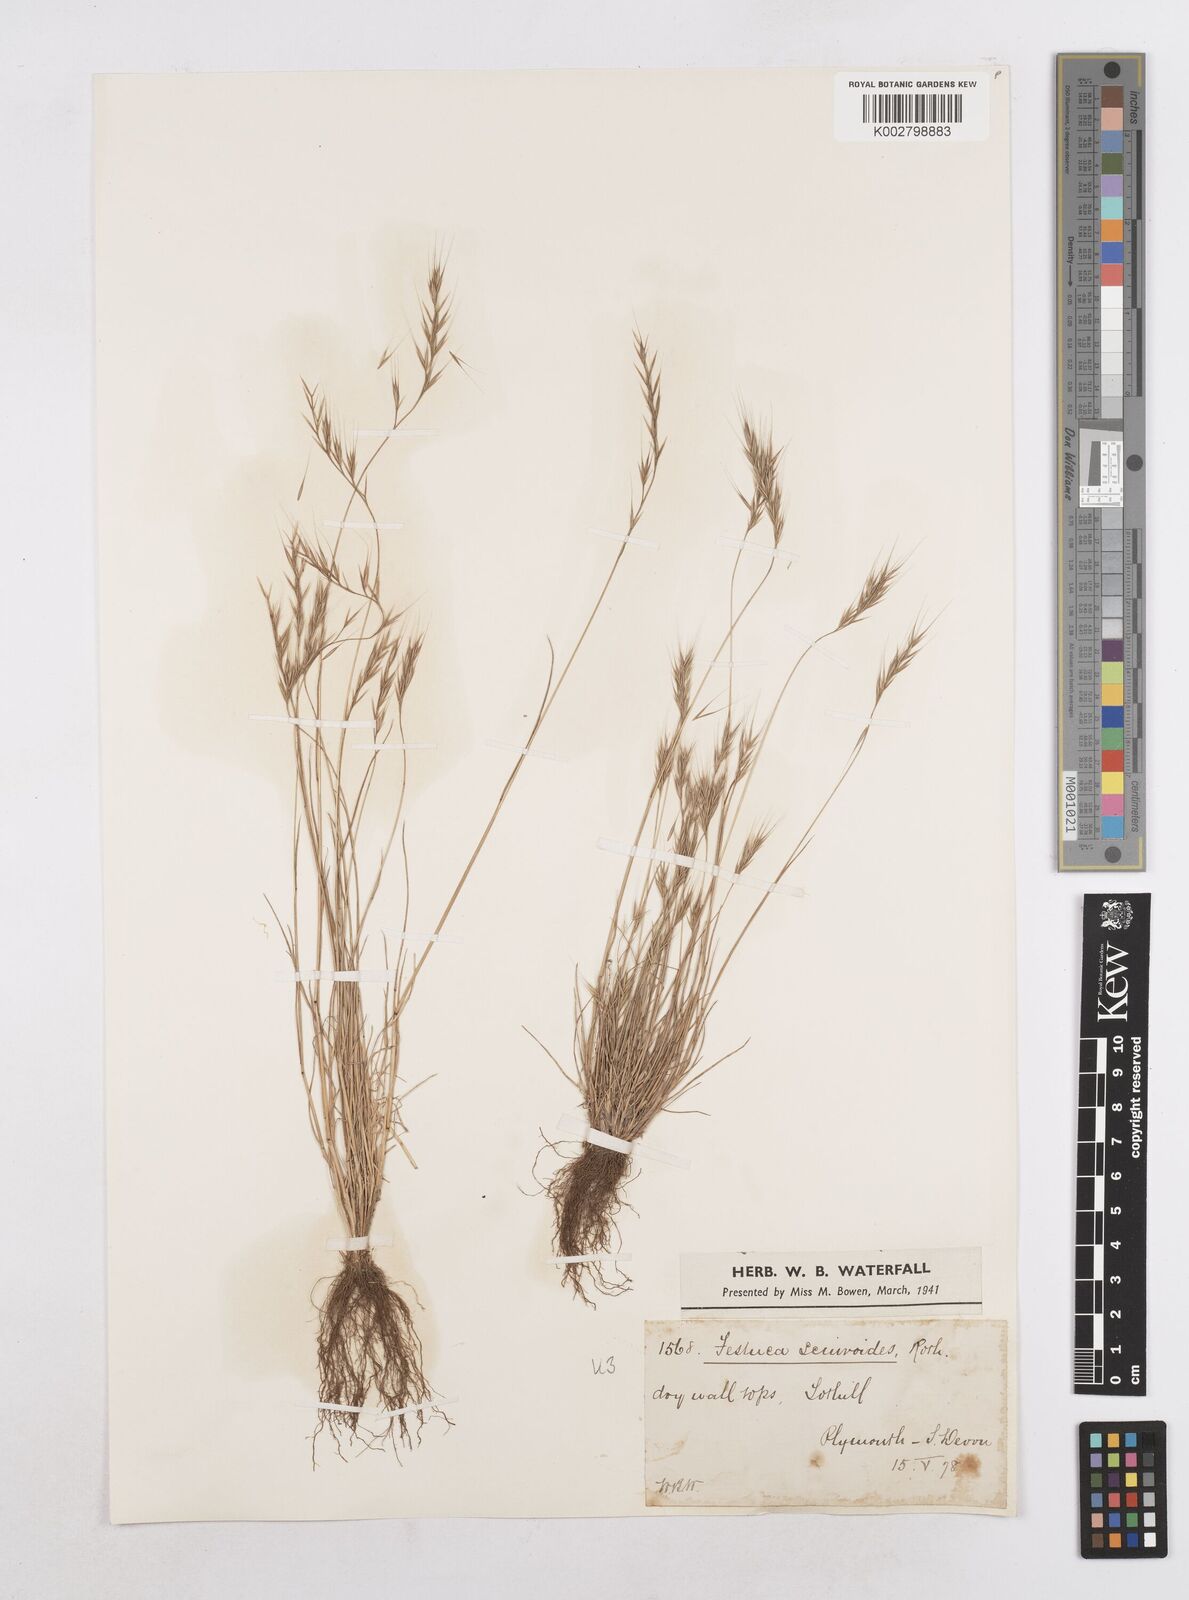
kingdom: Plantae
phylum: Tracheophyta
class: Liliopsida
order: Poales
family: Poaceae
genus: Festuca
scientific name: Festuca bromoides
